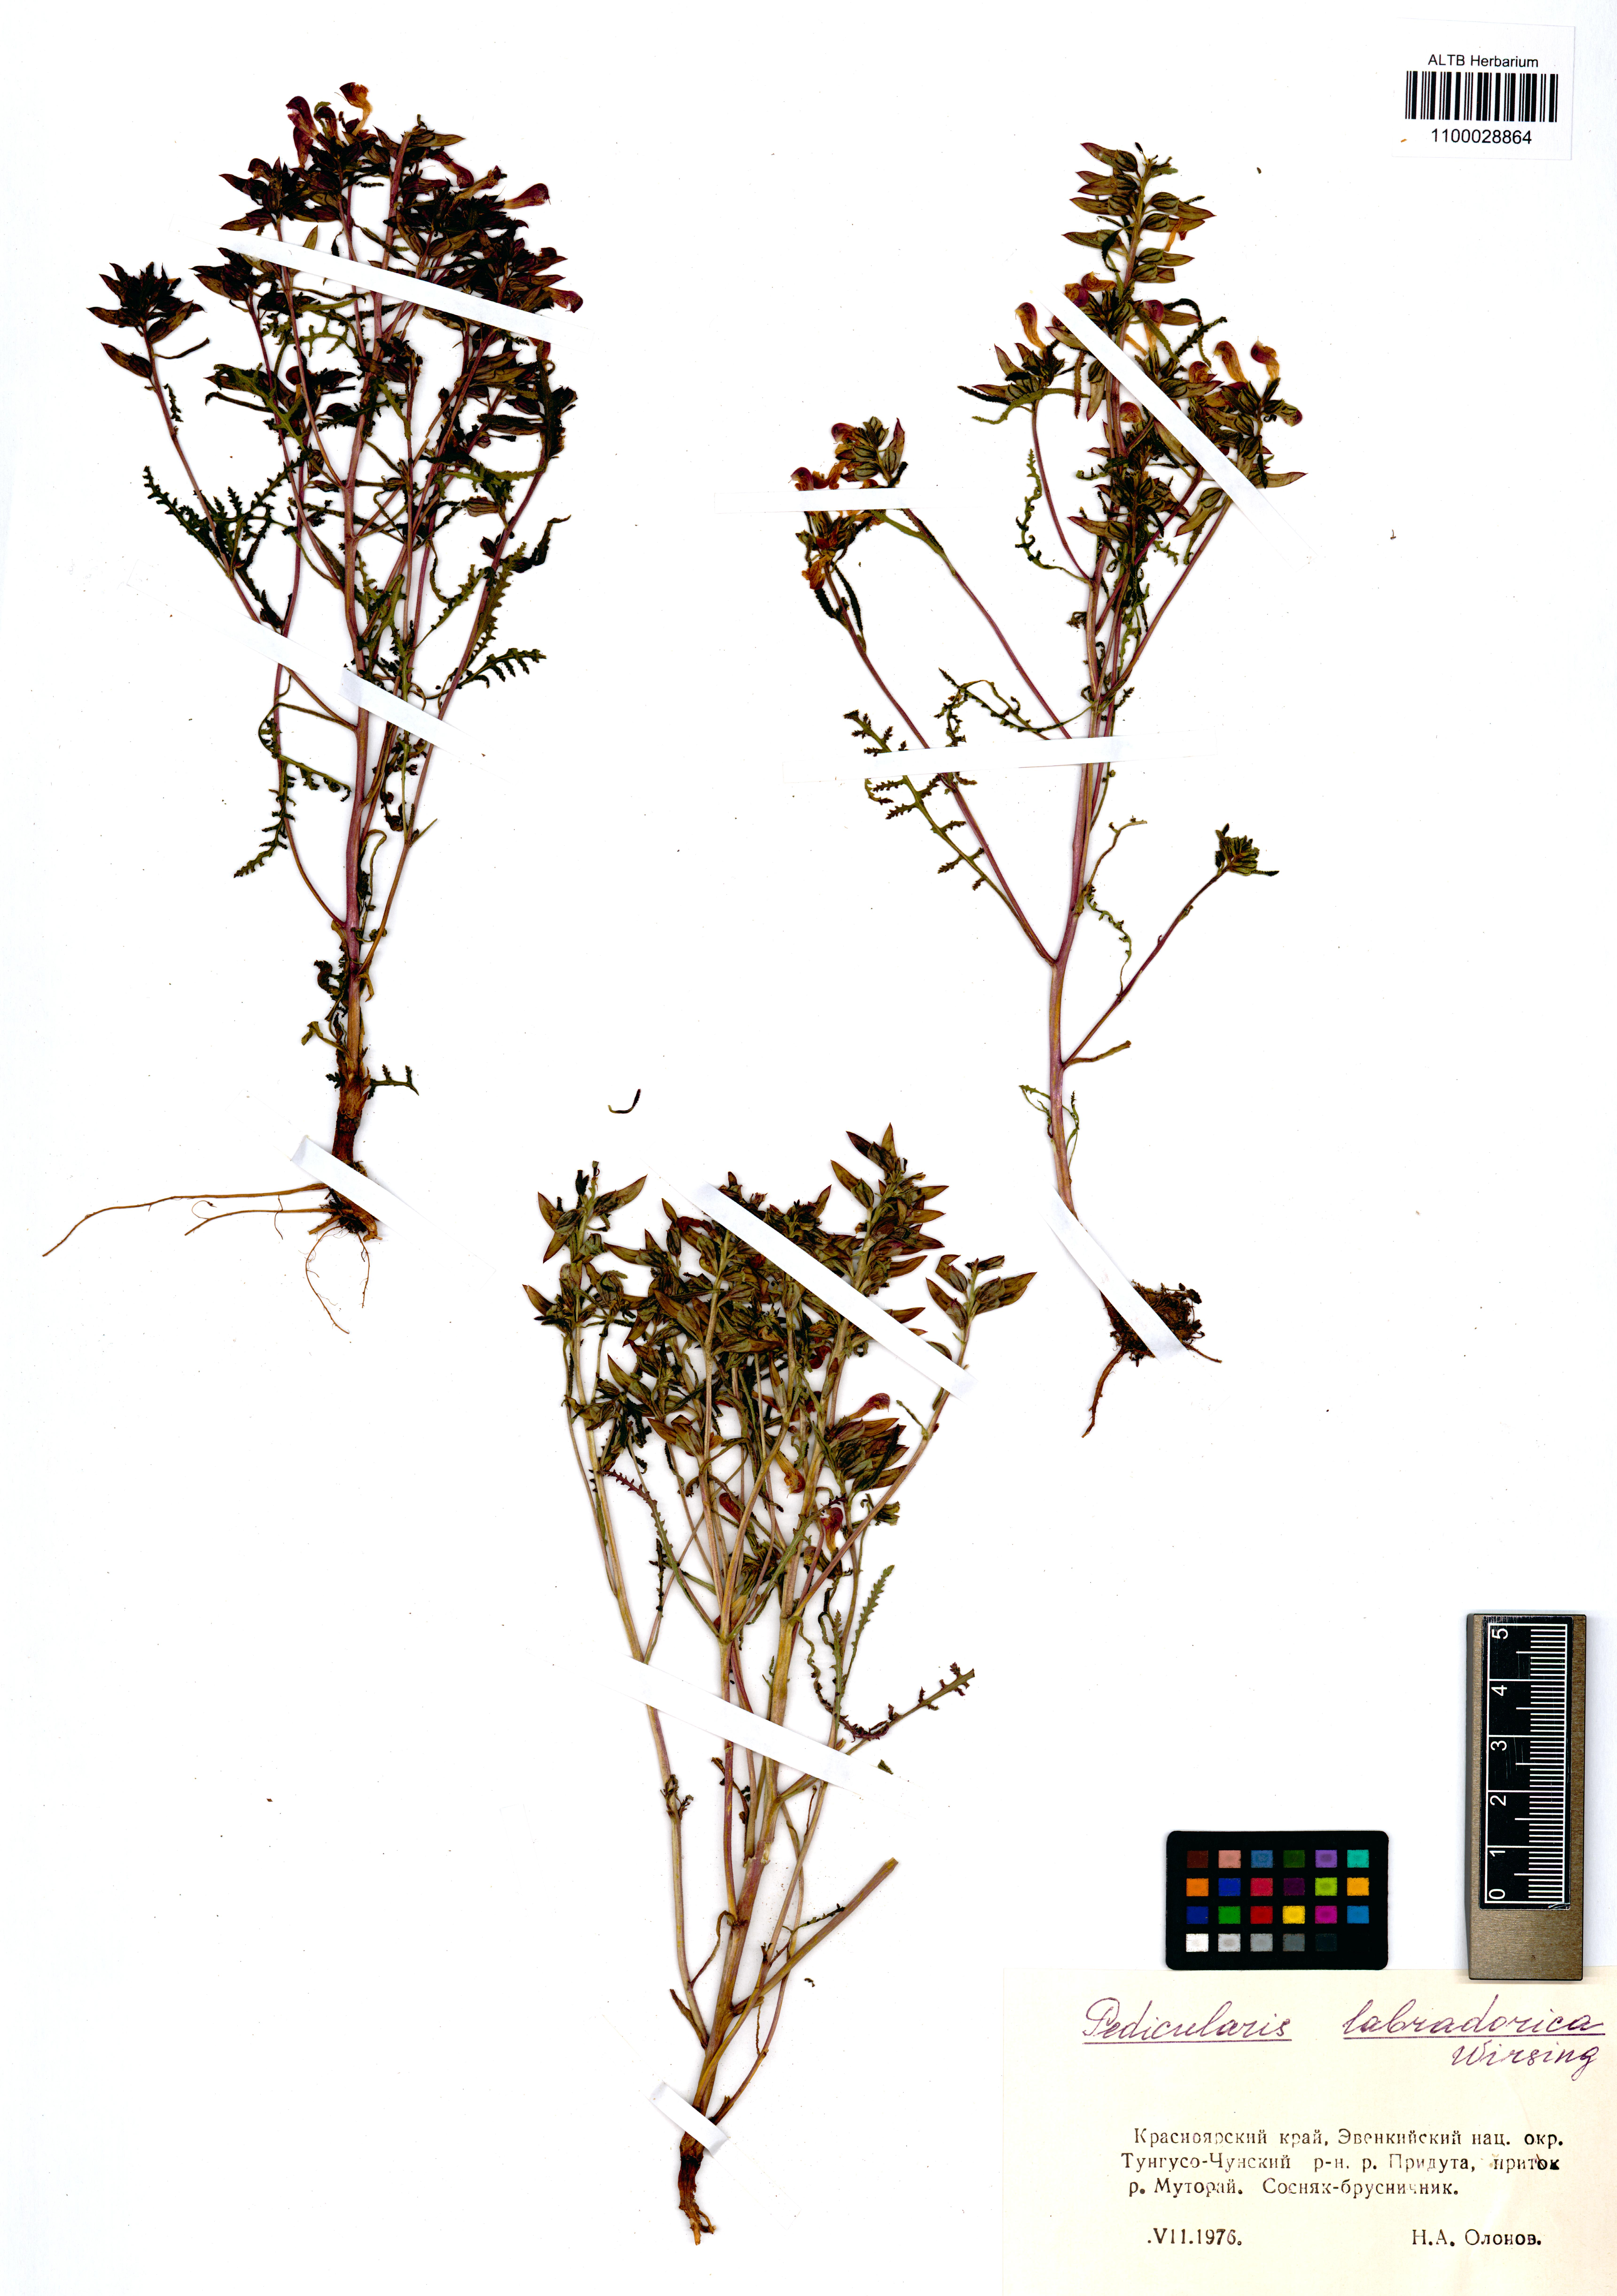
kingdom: Plantae
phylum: Tracheophyta
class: Magnoliopsida
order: Lamiales
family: Orobanchaceae
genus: Pedicularis
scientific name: Pedicularis labradorica
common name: Labrador lousewort
